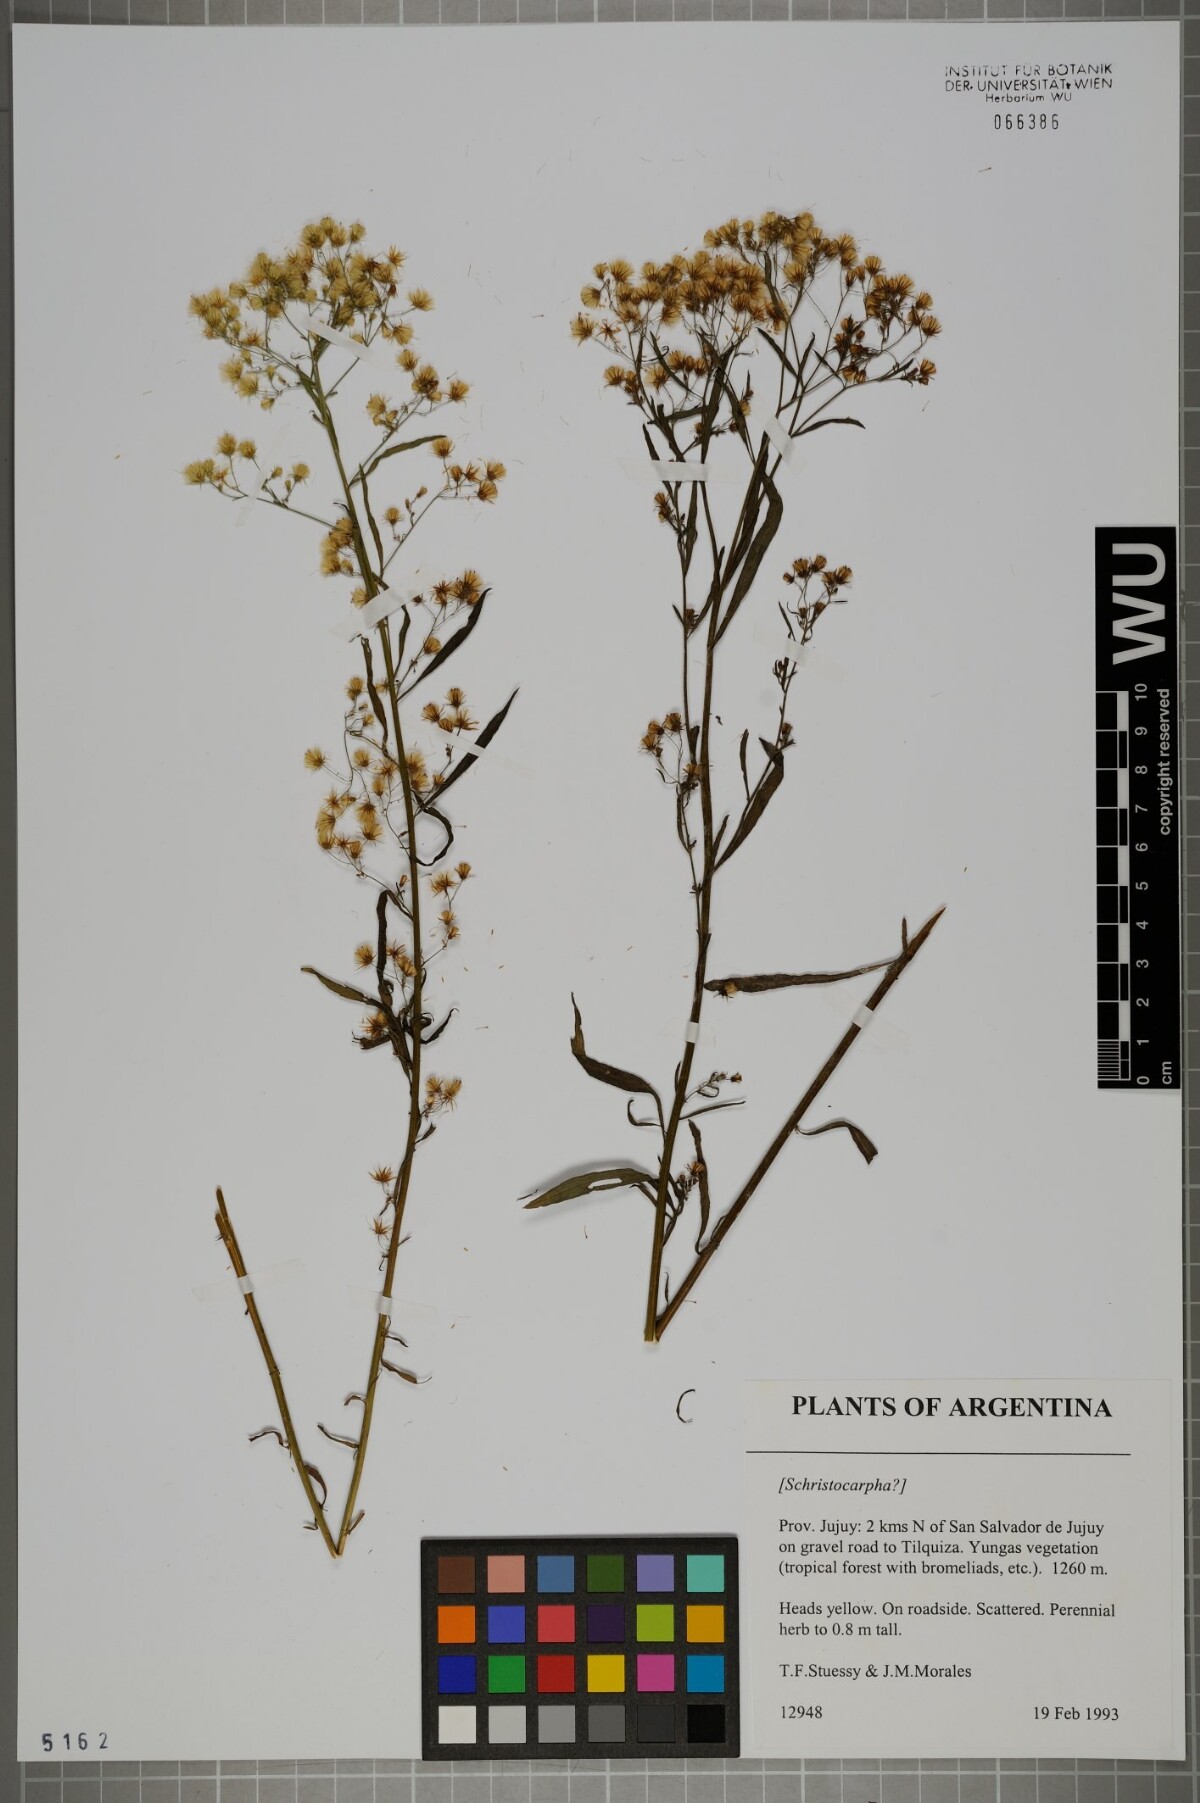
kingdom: Plantae
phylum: Tracheophyta
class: Magnoliopsida
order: Asterales
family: Asteraceae
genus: Schistocarpha
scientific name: Schistocarpha
